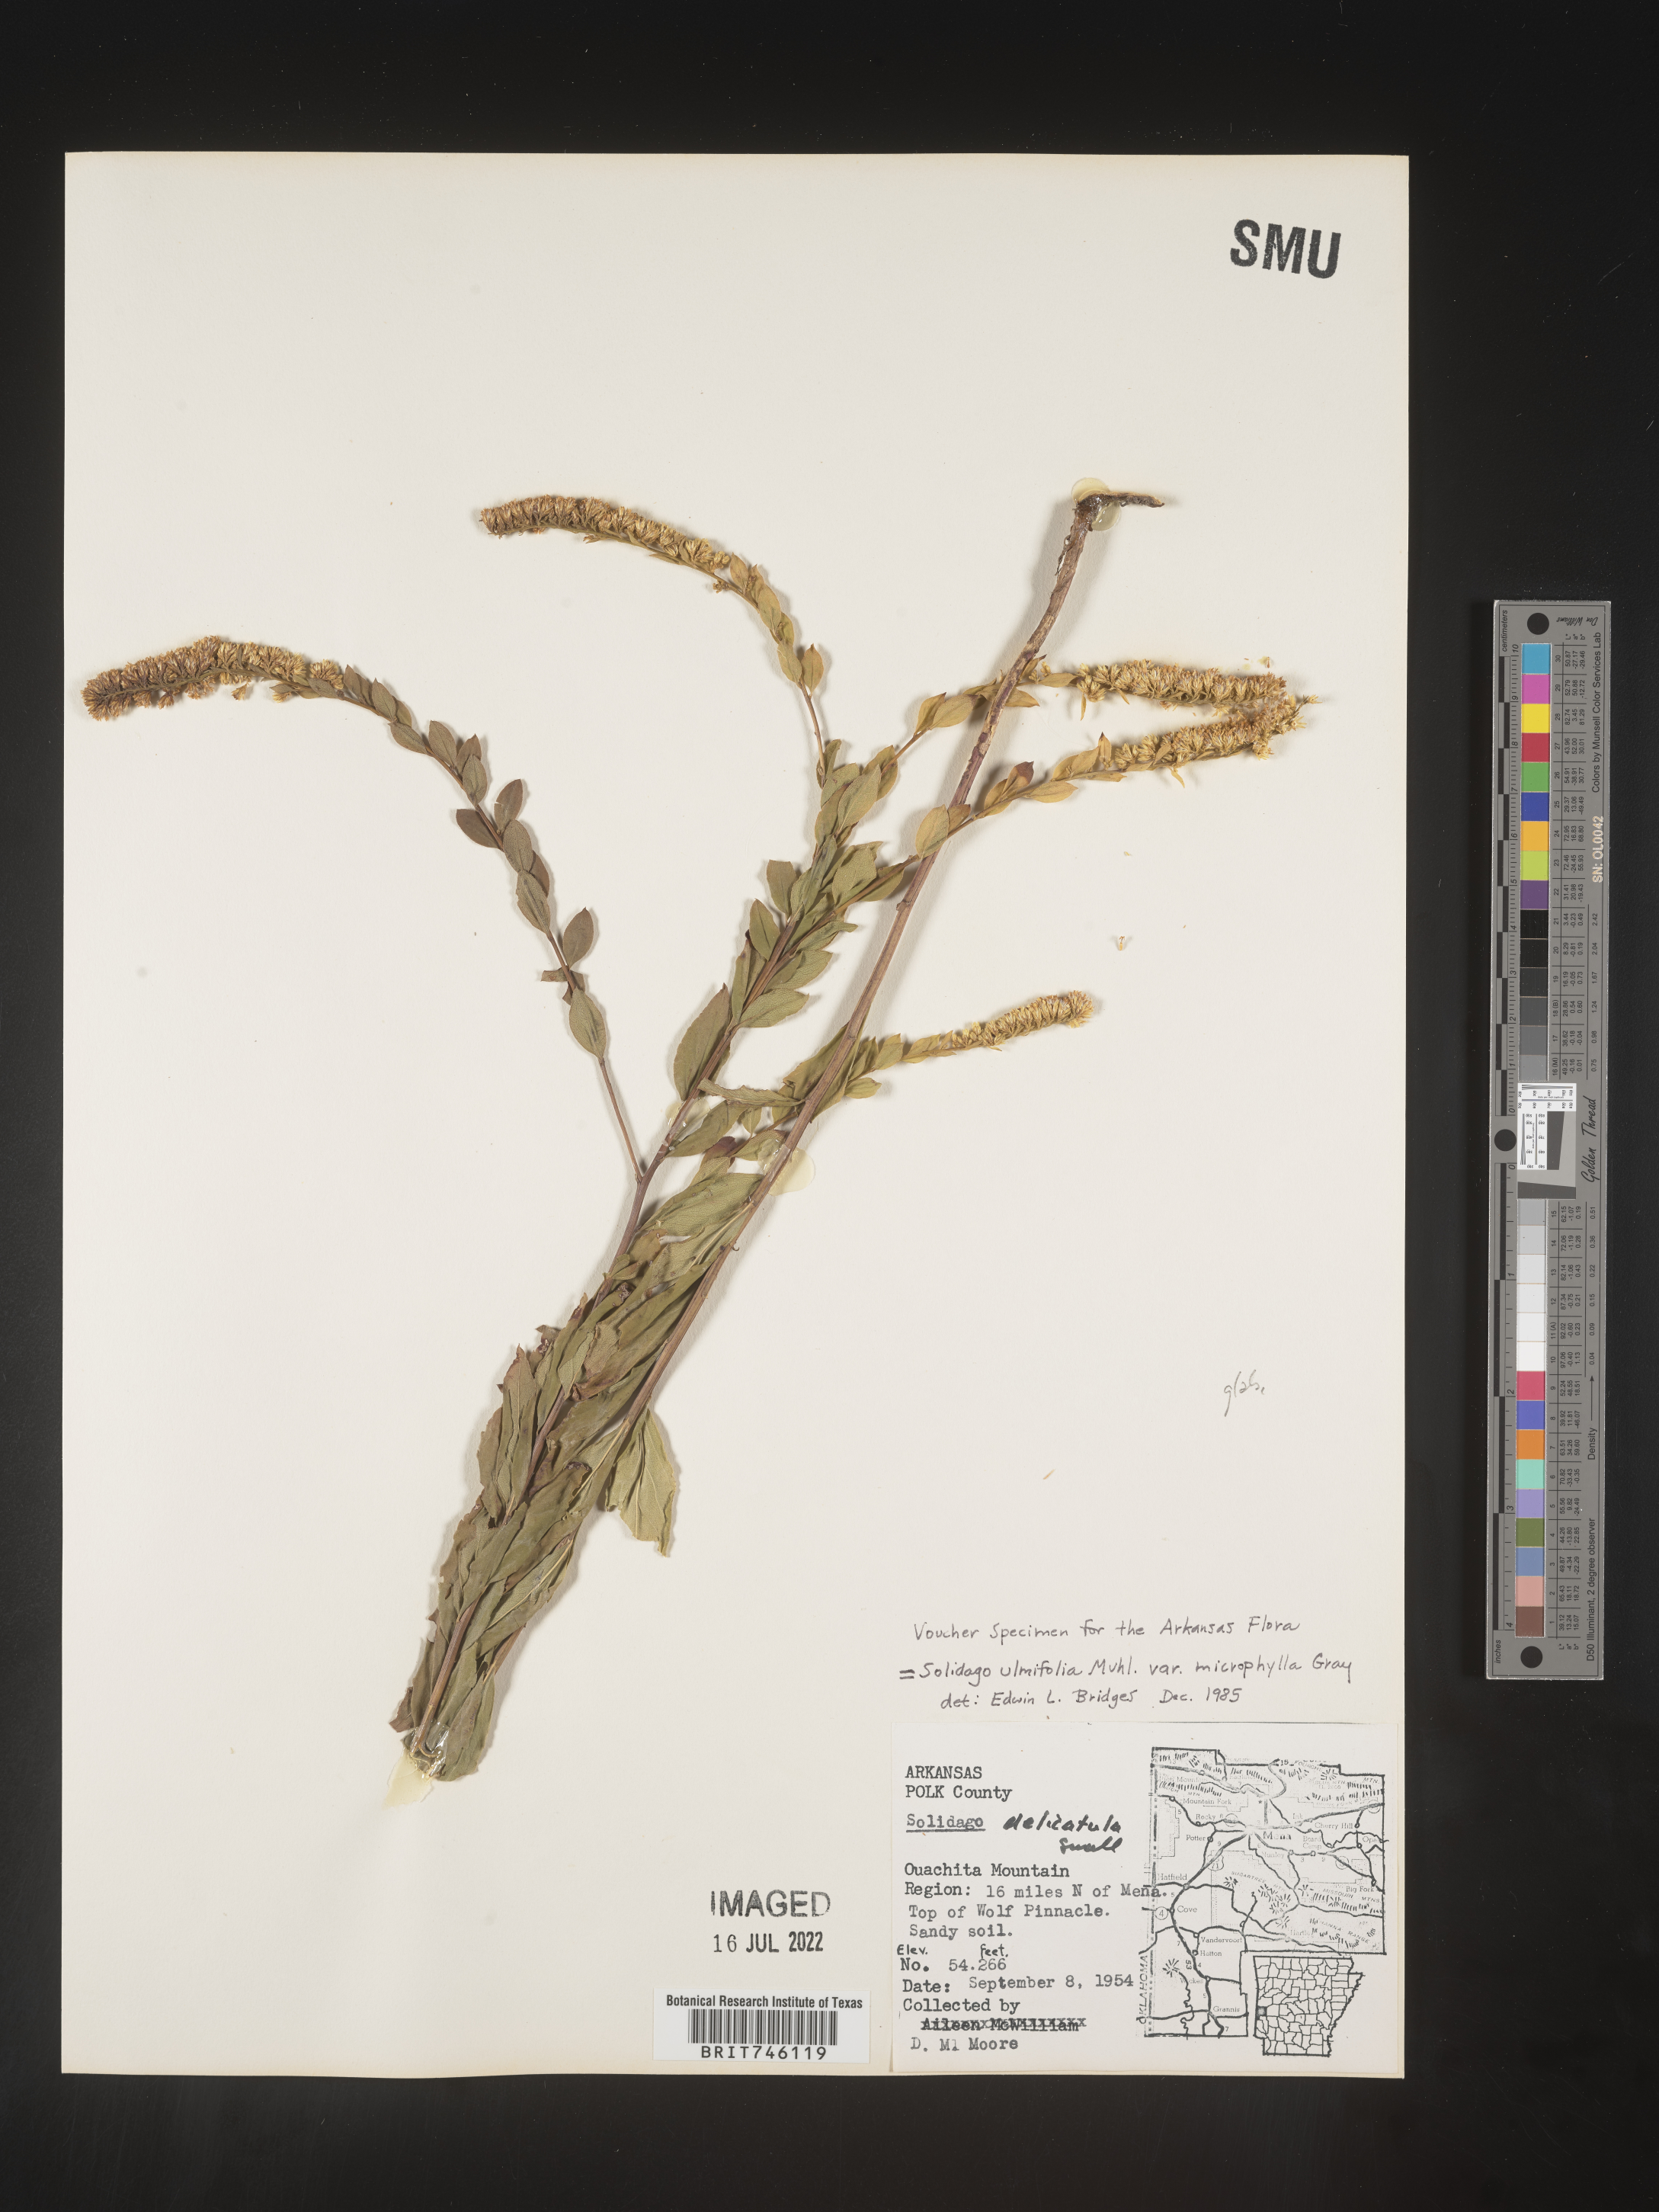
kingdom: Plantae
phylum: Tracheophyta
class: Magnoliopsida
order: Asterales
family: Asteraceae
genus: Solidago
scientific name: Solidago delicatula
